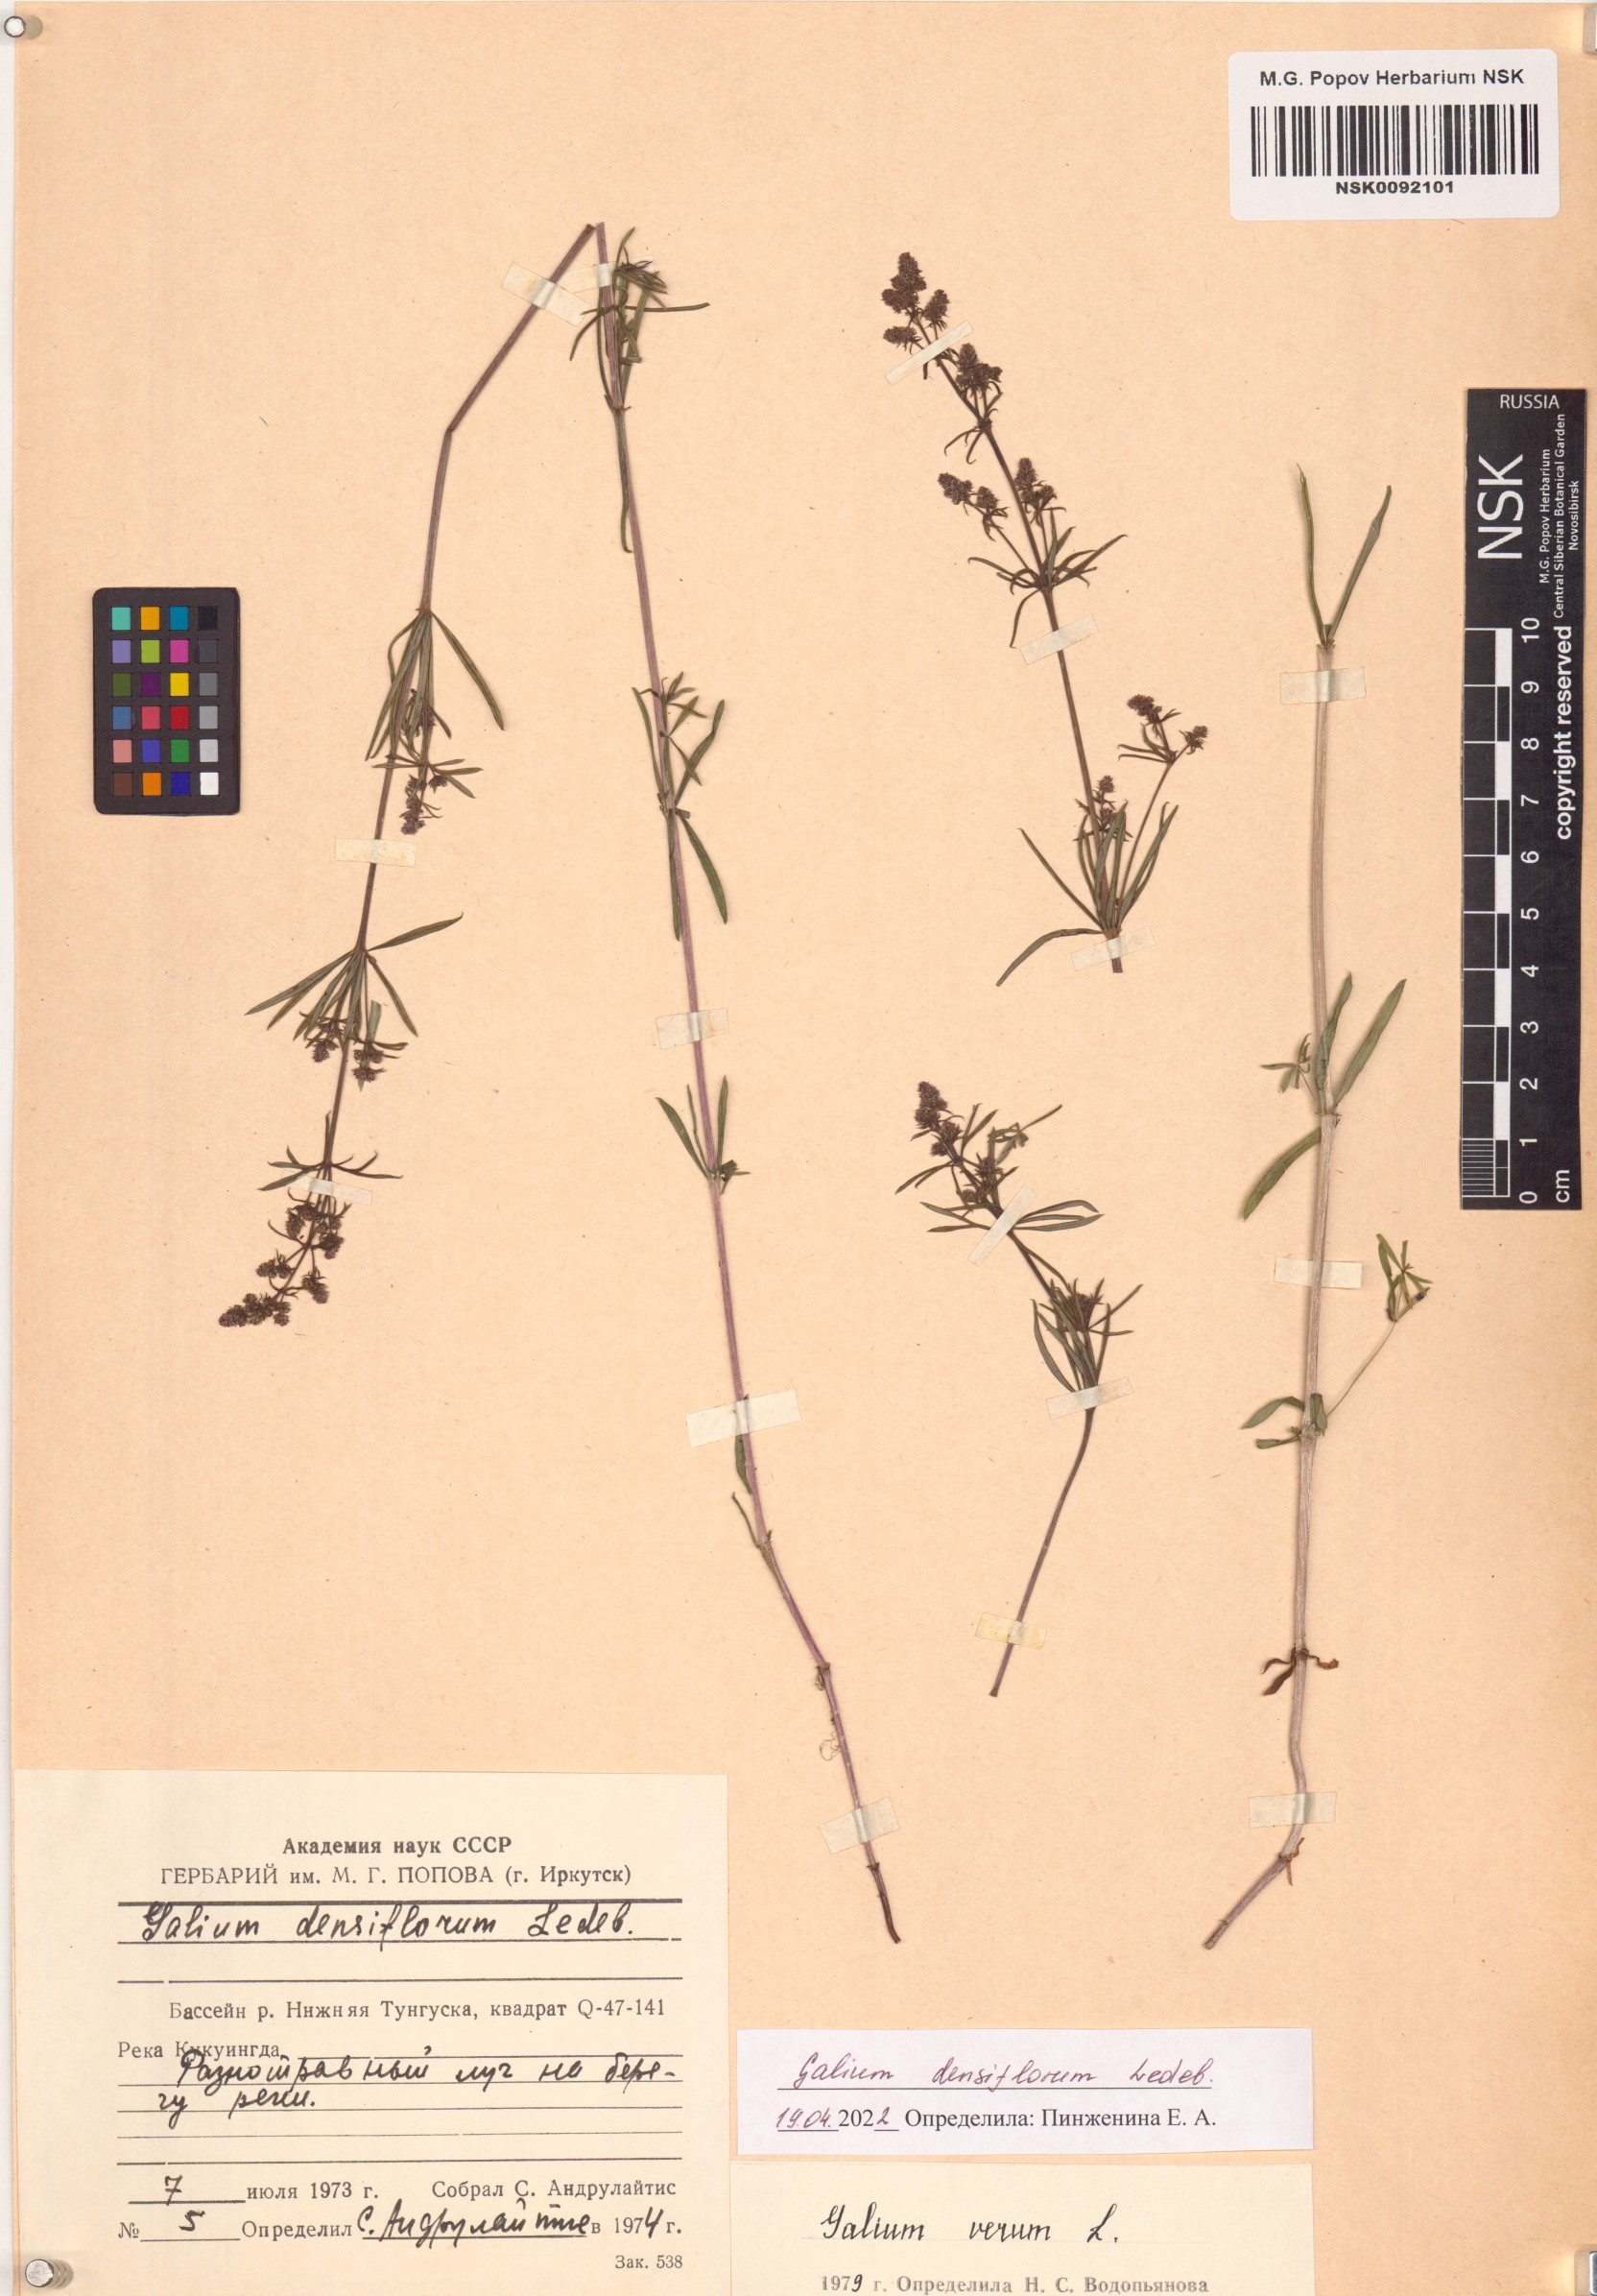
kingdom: Plantae
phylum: Tracheophyta
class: Magnoliopsida
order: Gentianales
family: Rubiaceae
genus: Galium
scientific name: Galium densiflorum
